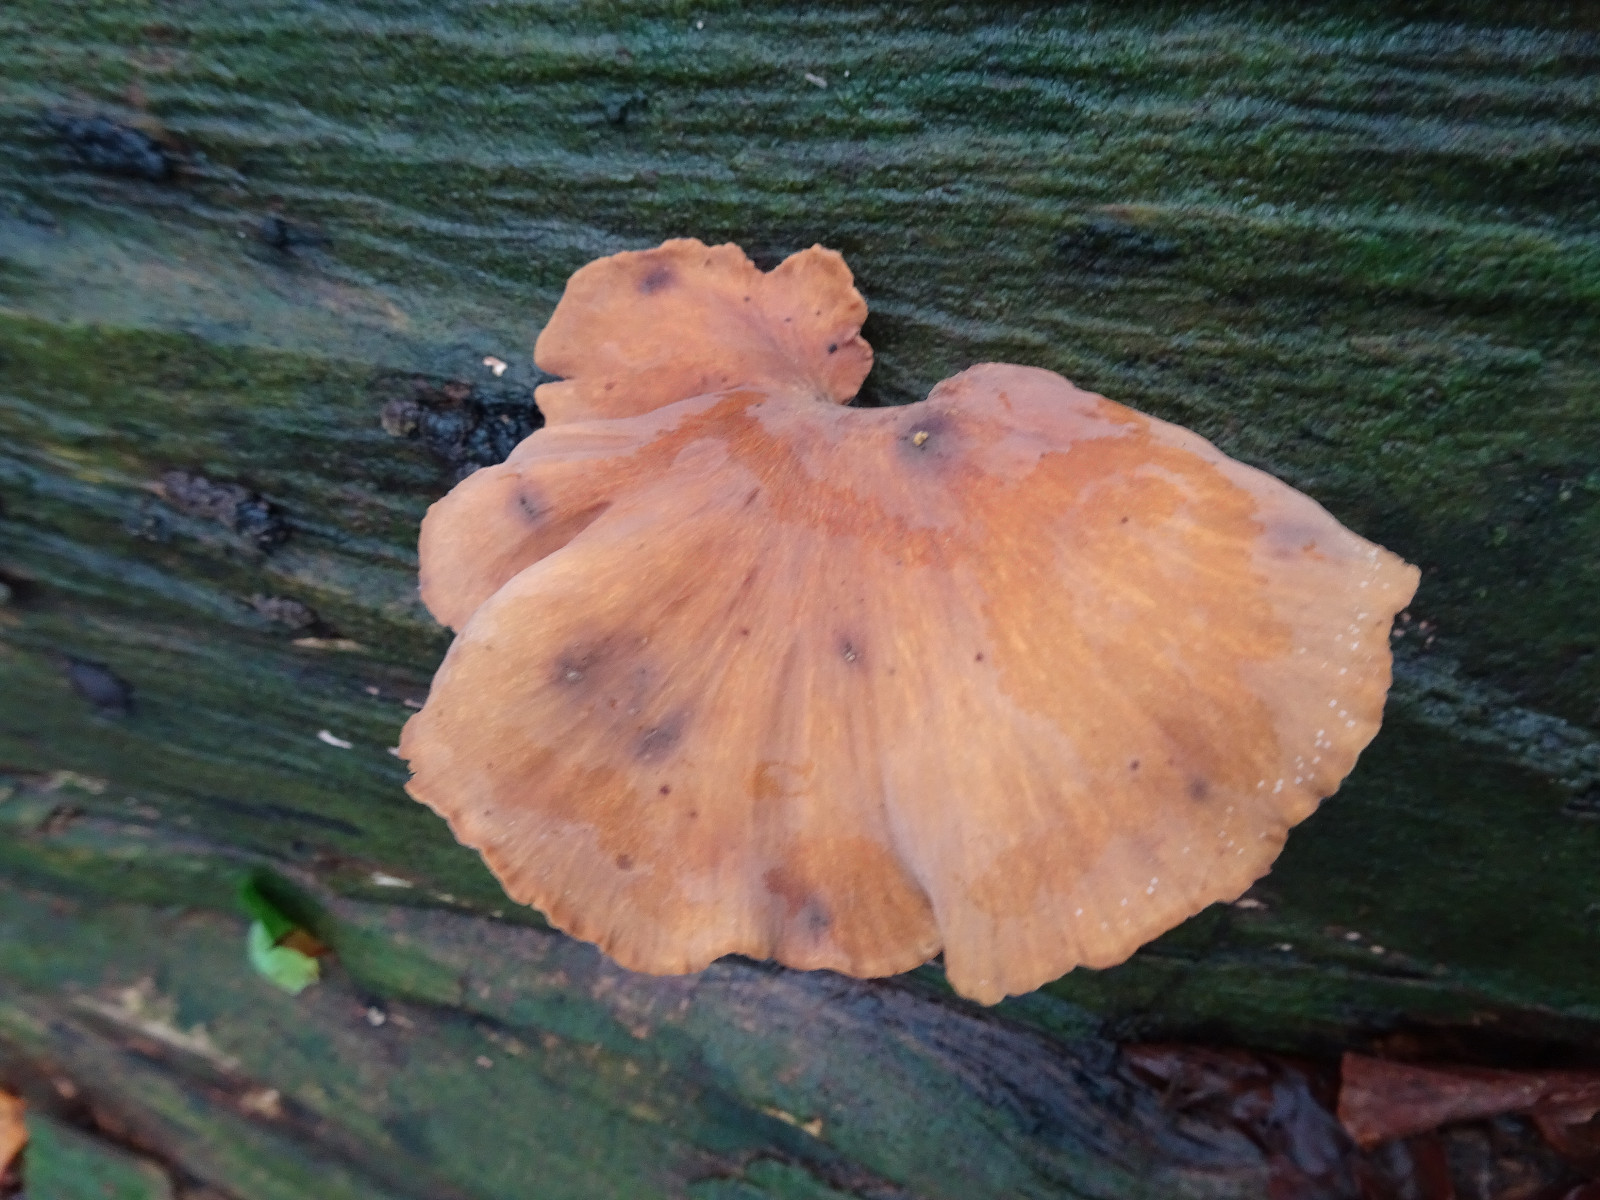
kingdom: Fungi
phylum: Basidiomycota
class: Agaricomycetes
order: Polyporales
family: Polyporaceae
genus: Cerioporus
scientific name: Cerioporus varius
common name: foranderlig stilkporesvamp
